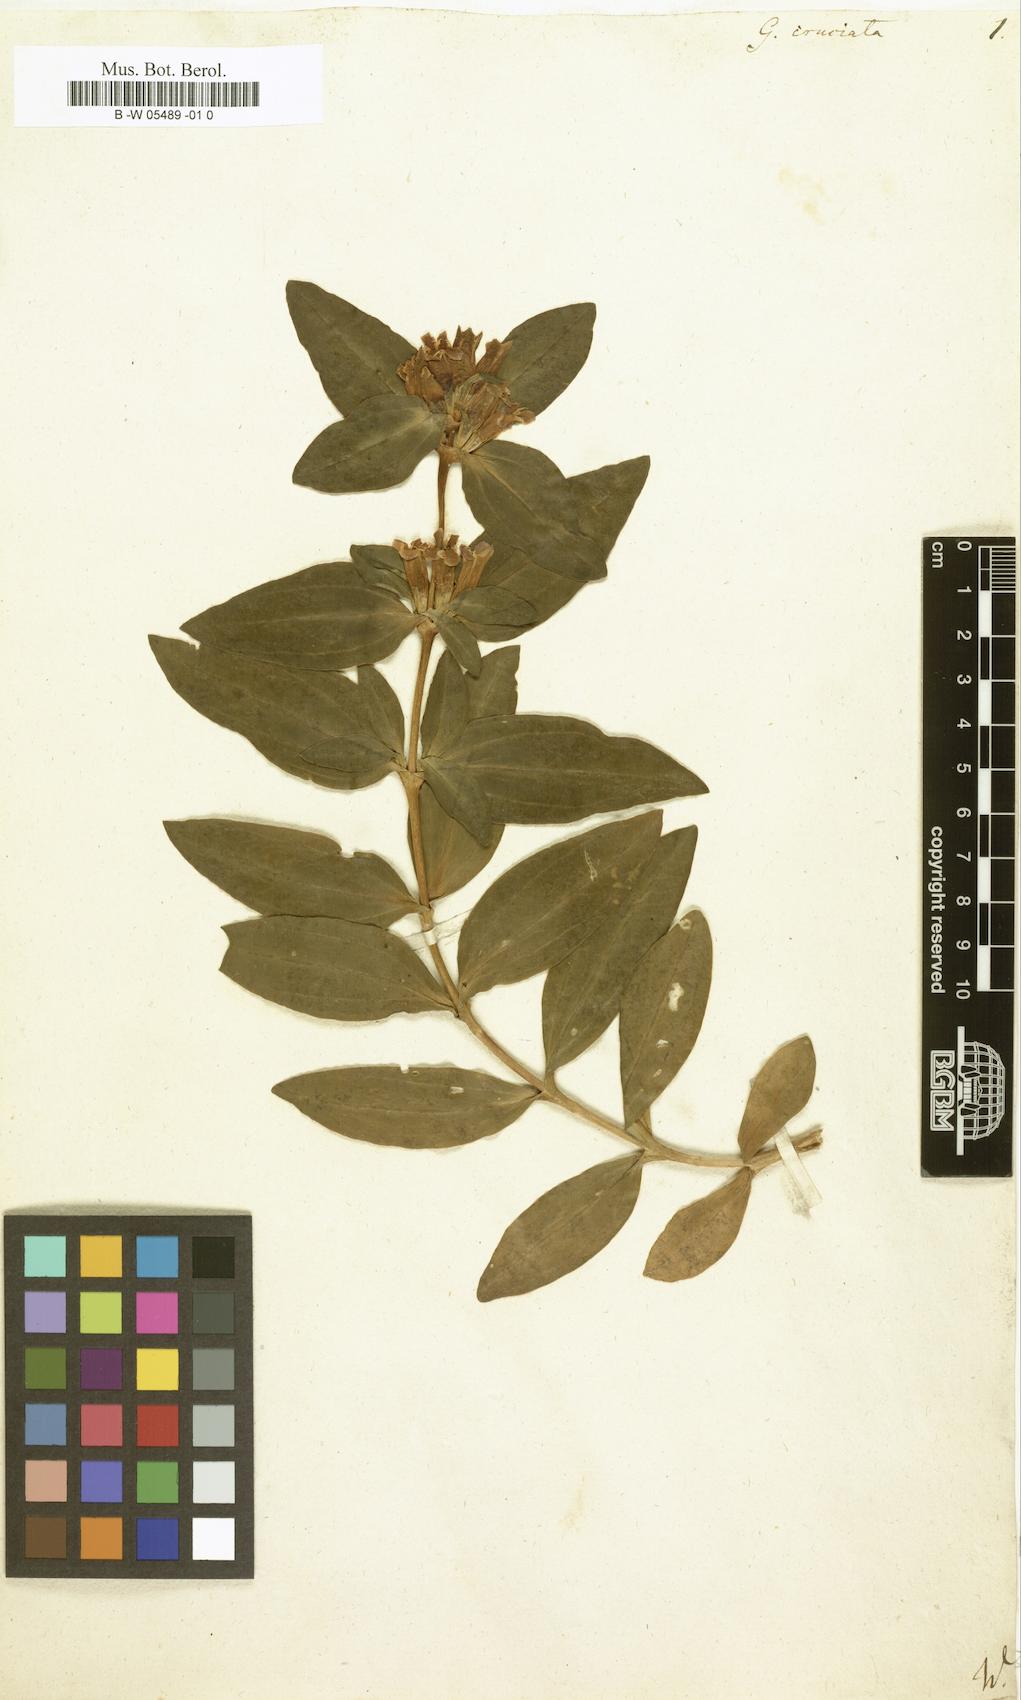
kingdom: Plantae
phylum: Tracheophyta
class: Magnoliopsida
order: Gentianales
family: Gentianaceae
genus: Gentiana
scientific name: Gentiana cruciata
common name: Cross gentian
